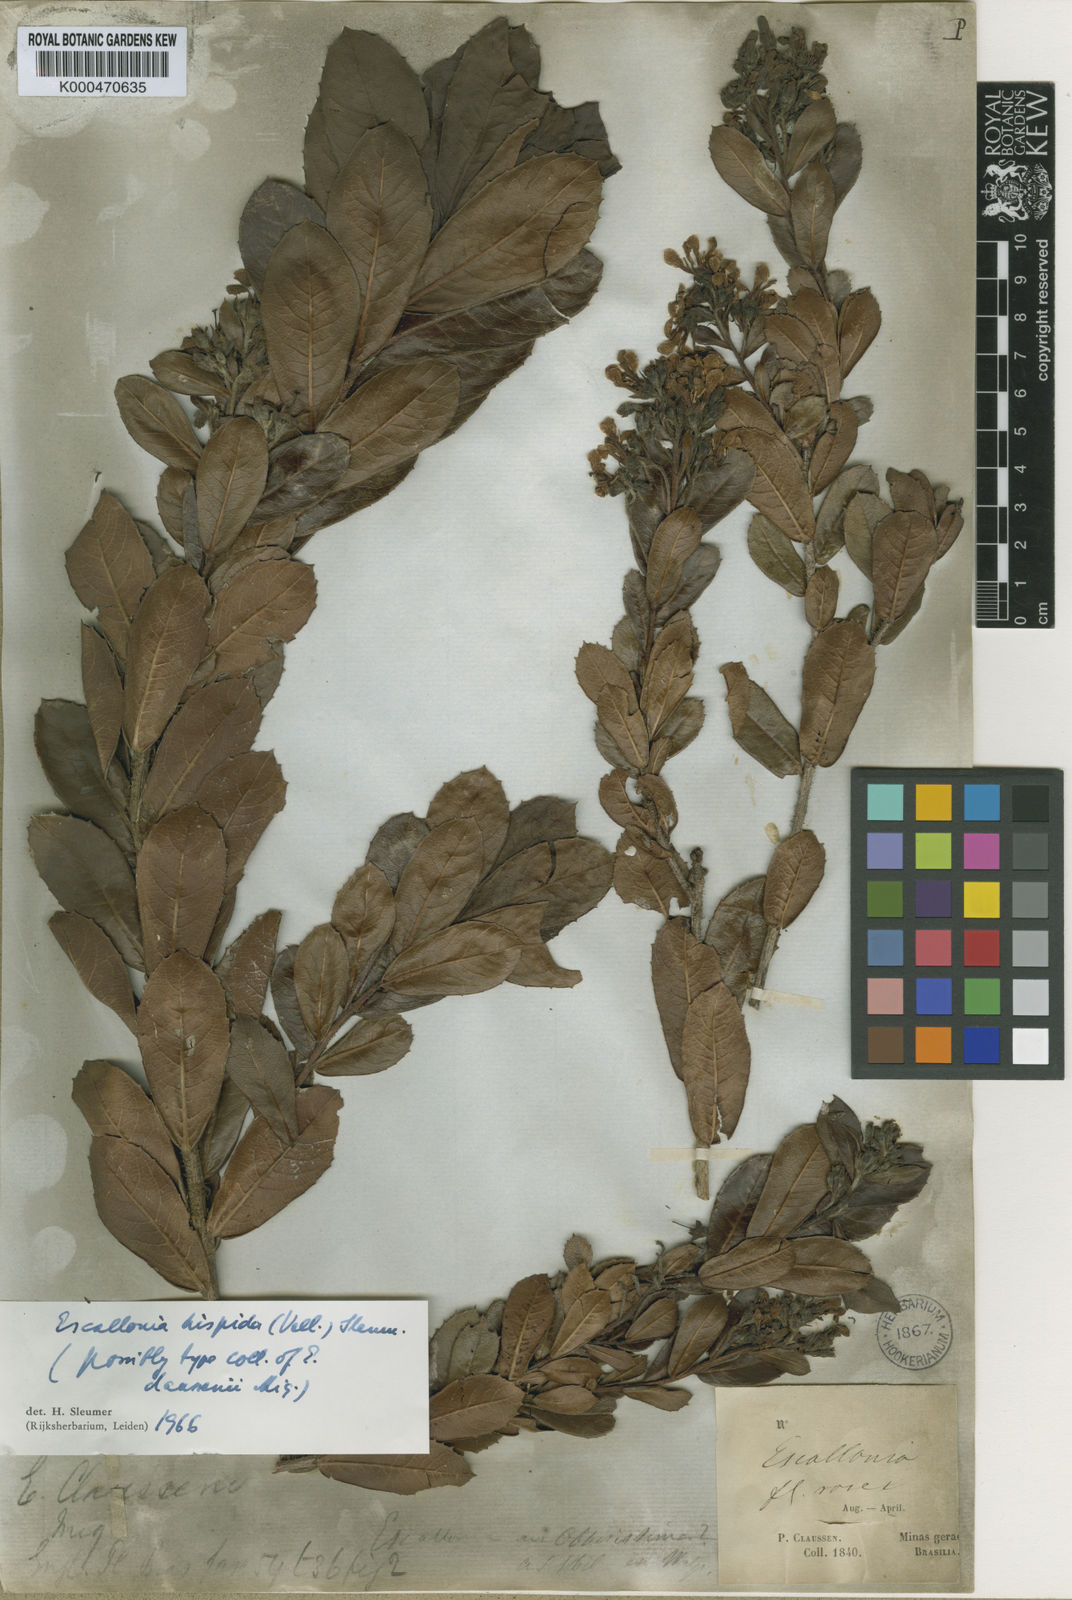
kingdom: Plantae
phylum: Tracheophyta
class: Magnoliopsida
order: Escalloniales
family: Escalloniaceae
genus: Escallonia
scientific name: Escallonia hispida
